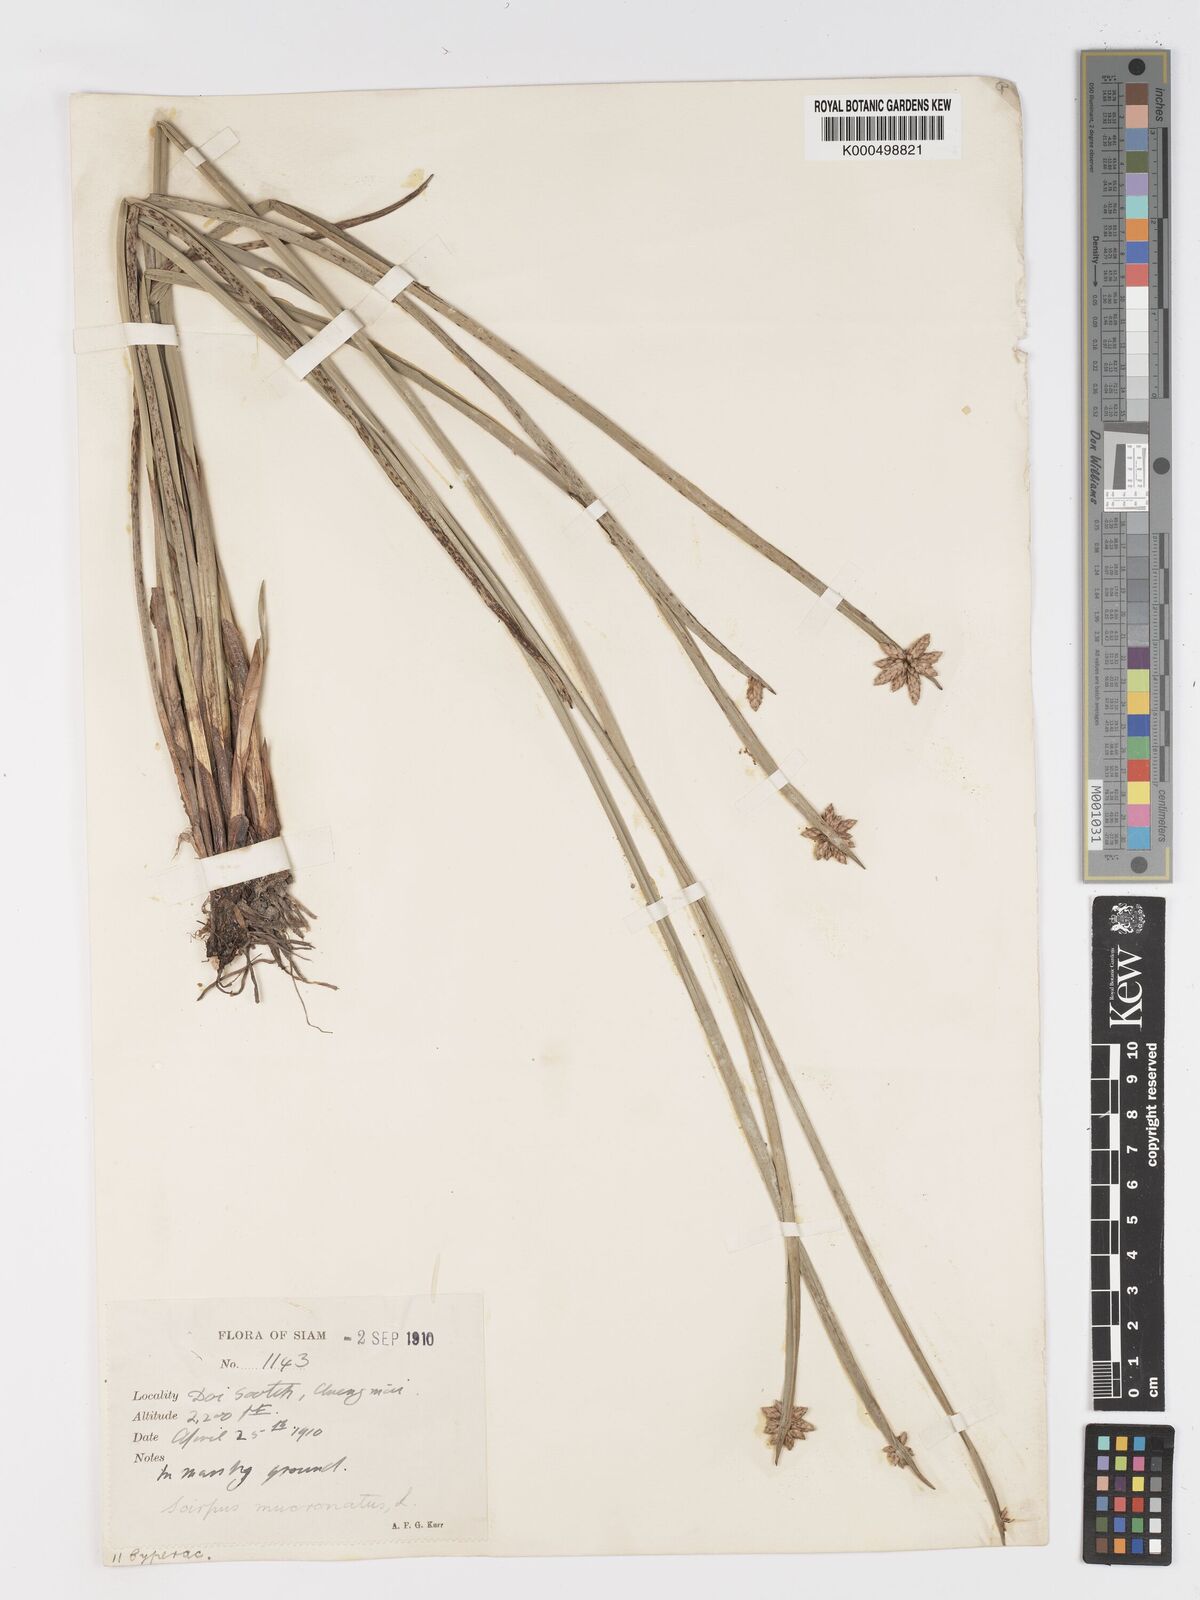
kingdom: Plantae
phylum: Tracheophyta
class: Liliopsida
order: Poales
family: Cyperaceae
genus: Schoenoplectiella
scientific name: Schoenoplectiella mucronata
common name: Bog bulrush
